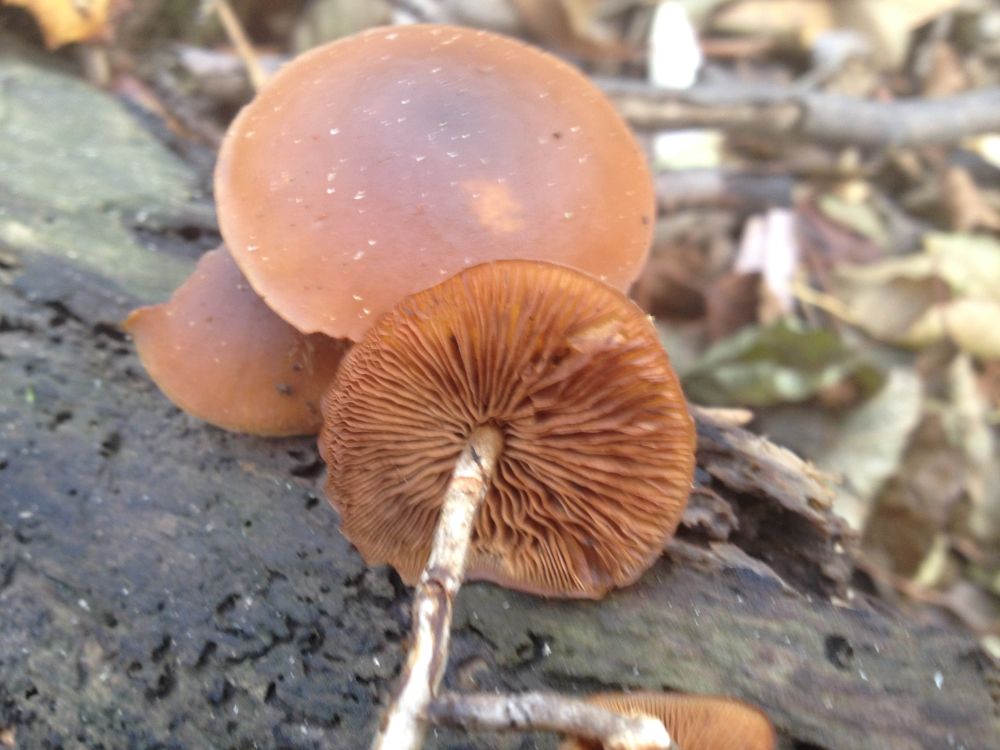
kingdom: Fungi
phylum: Basidiomycota
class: Agaricomycetes
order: Agaricales
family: Hymenogastraceae
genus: Galerina
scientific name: Galerina marginata
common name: randbæltet hjelmhat
